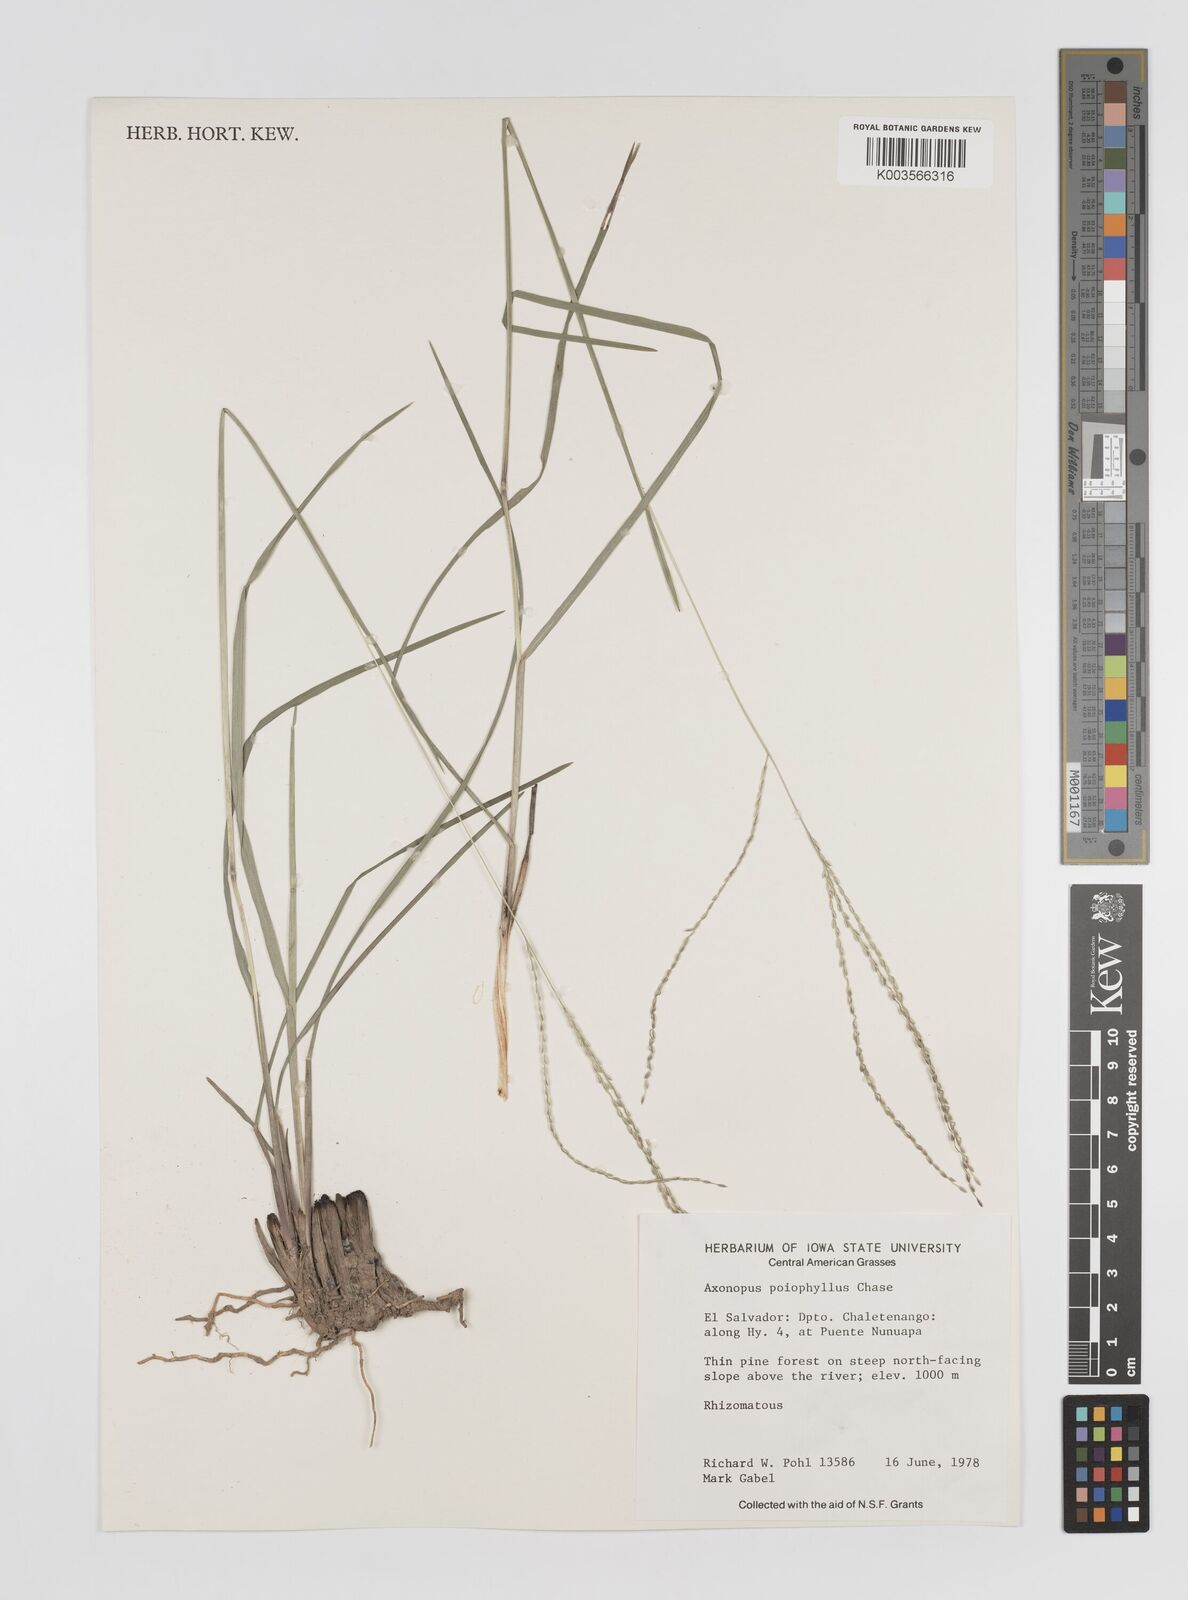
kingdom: Plantae
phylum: Tracheophyta
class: Liliopsida
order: Poales
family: Poaceae
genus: Axonopus
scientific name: Axonopus
